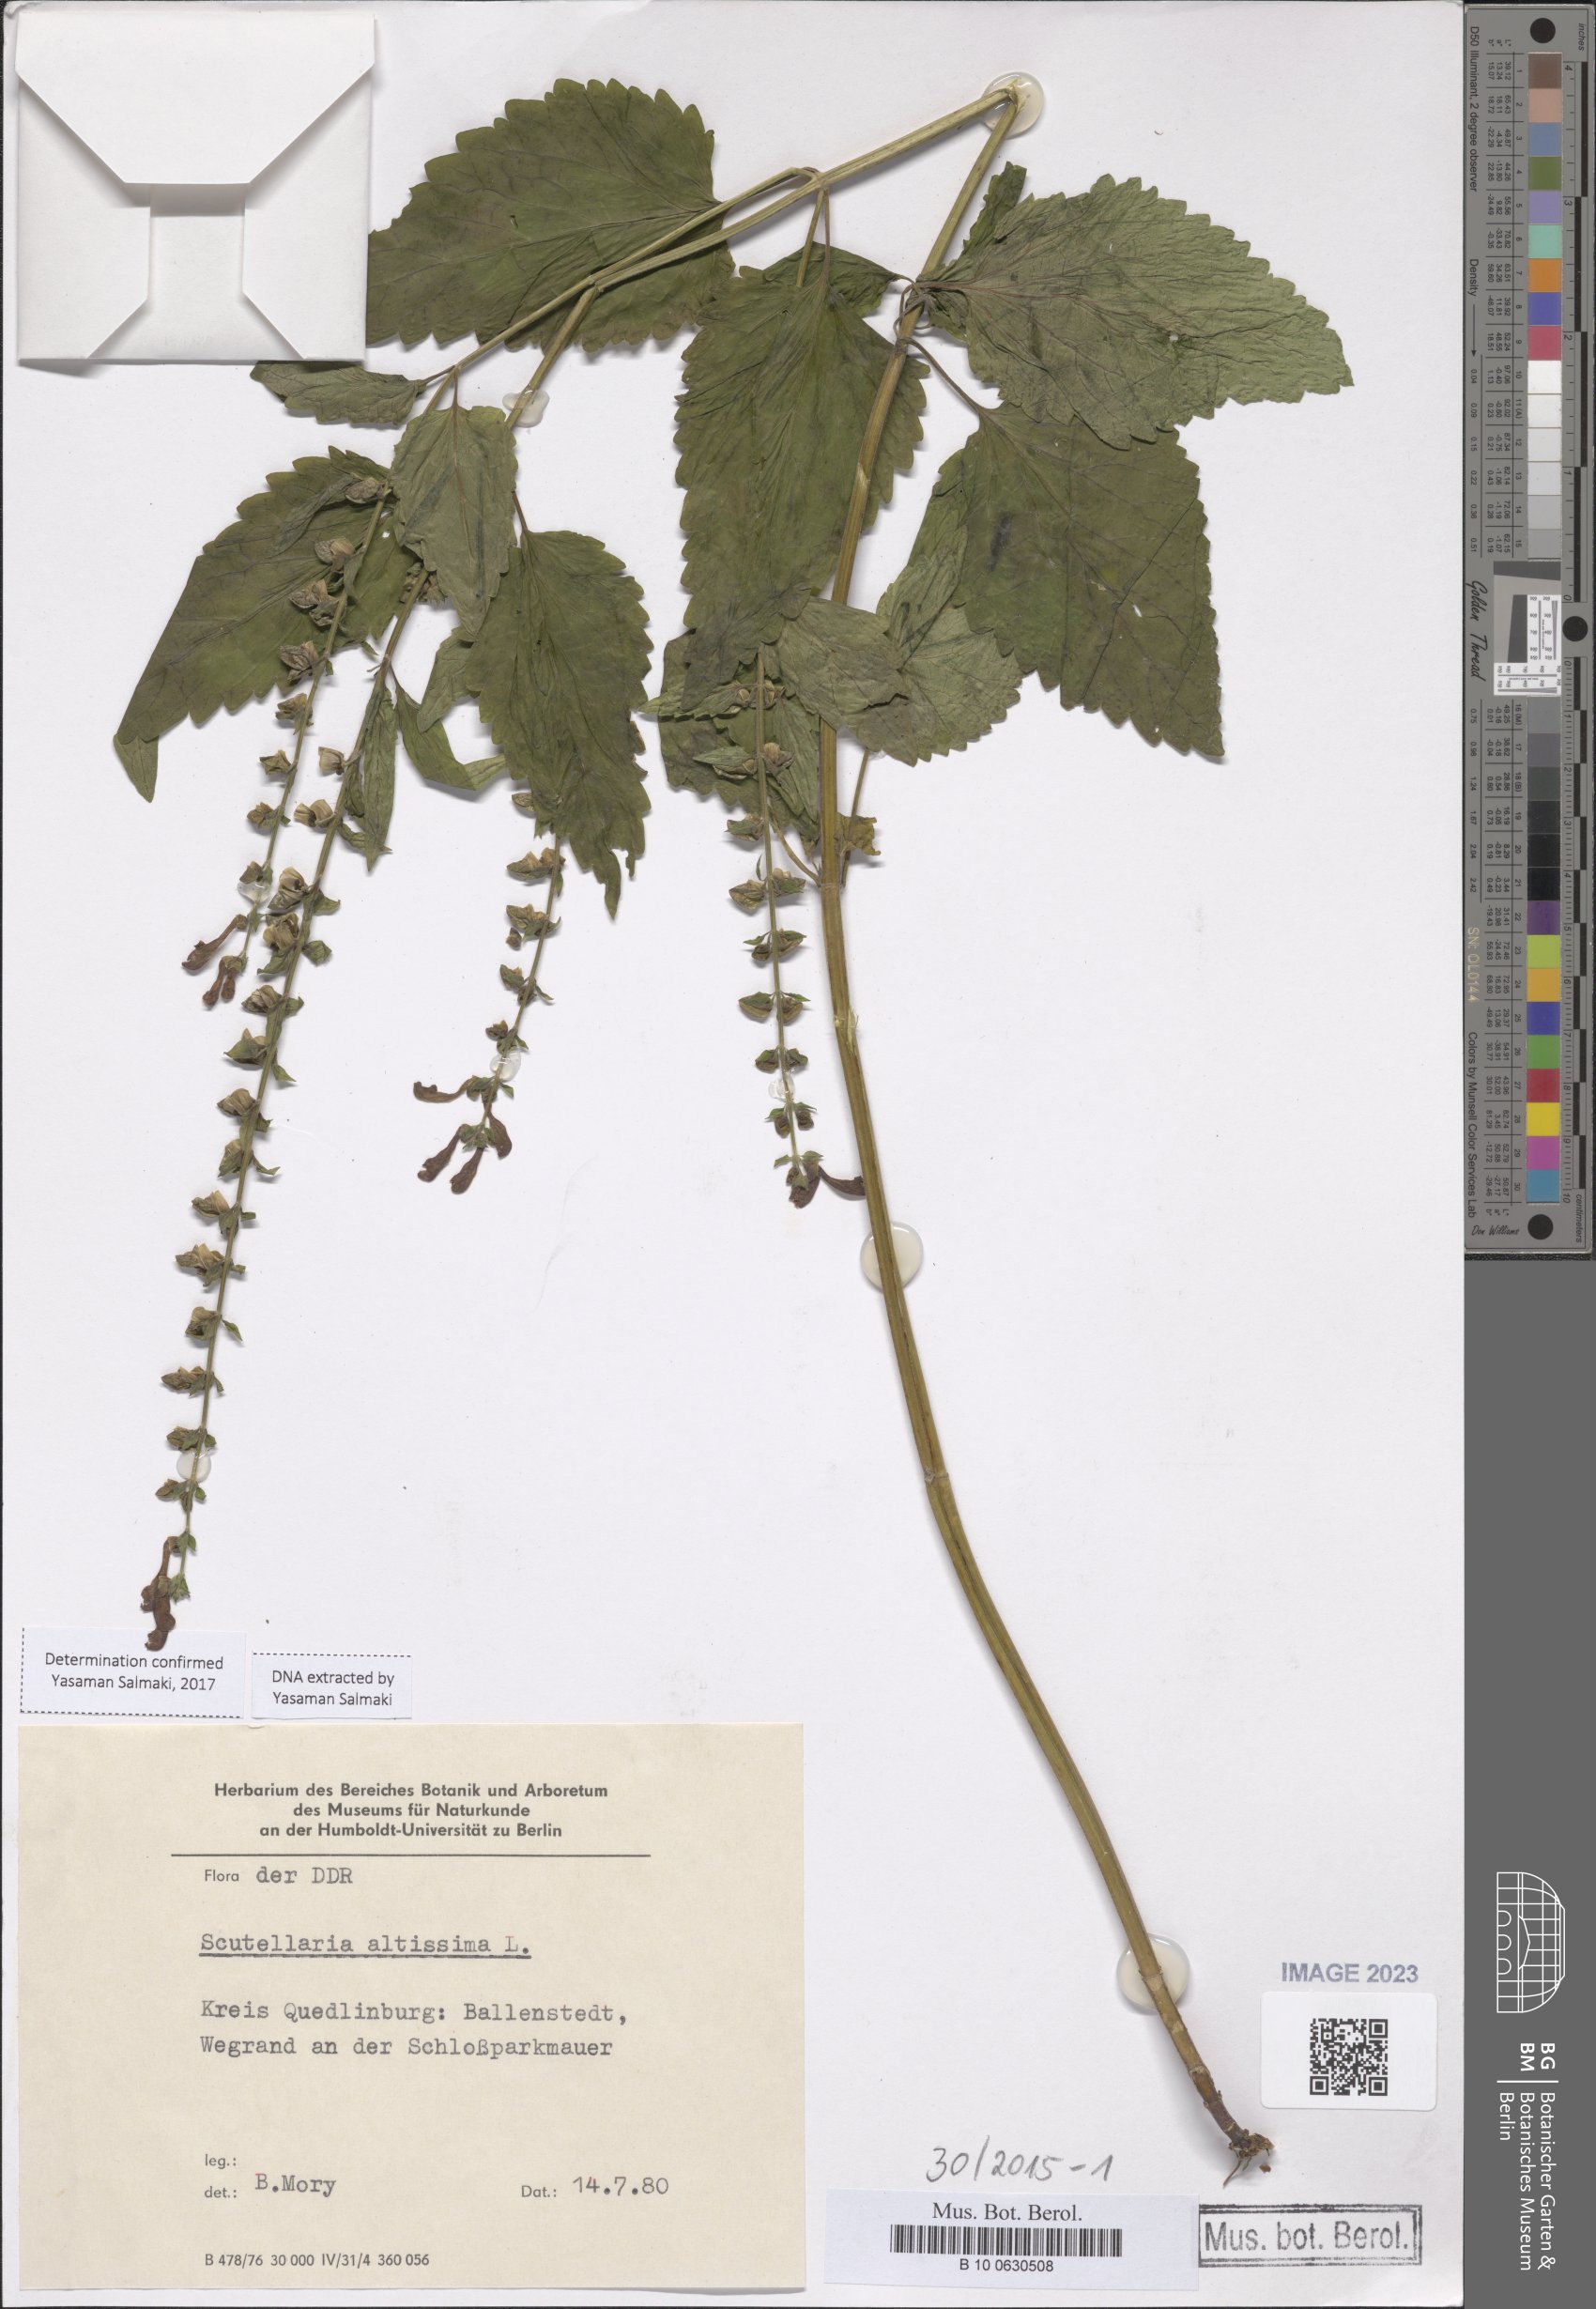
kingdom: Plantae
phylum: Tracheophyta
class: Magnoliopsida
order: Lamiales
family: Lamiaceae
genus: Scutellaria
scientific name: Scutellaria altissima
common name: Somerset skullcap
